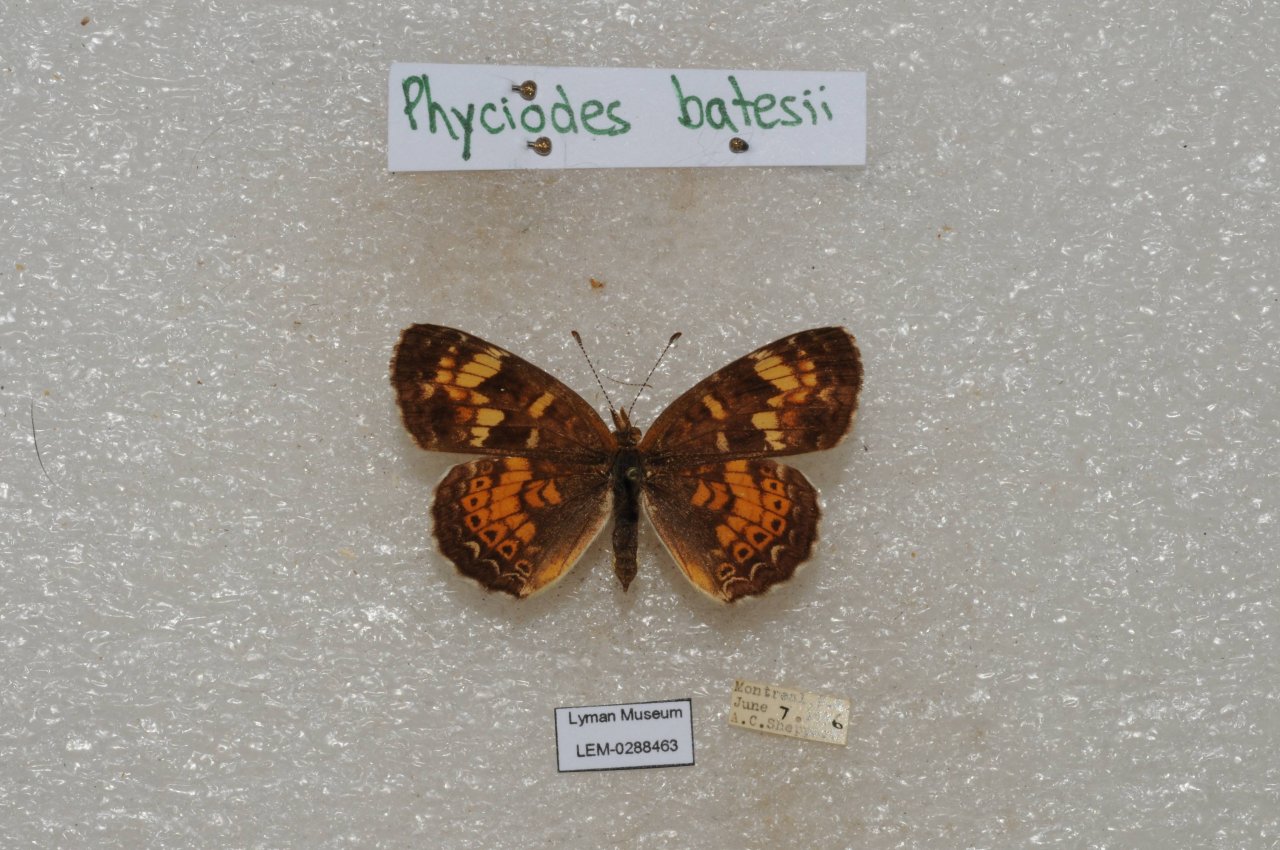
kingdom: Animalia
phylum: Arthropoda
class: Insecta
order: Lepidoptera
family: Nymphalidae
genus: Phyciodes
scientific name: Phyciodes tharos
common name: Northern Crescent
